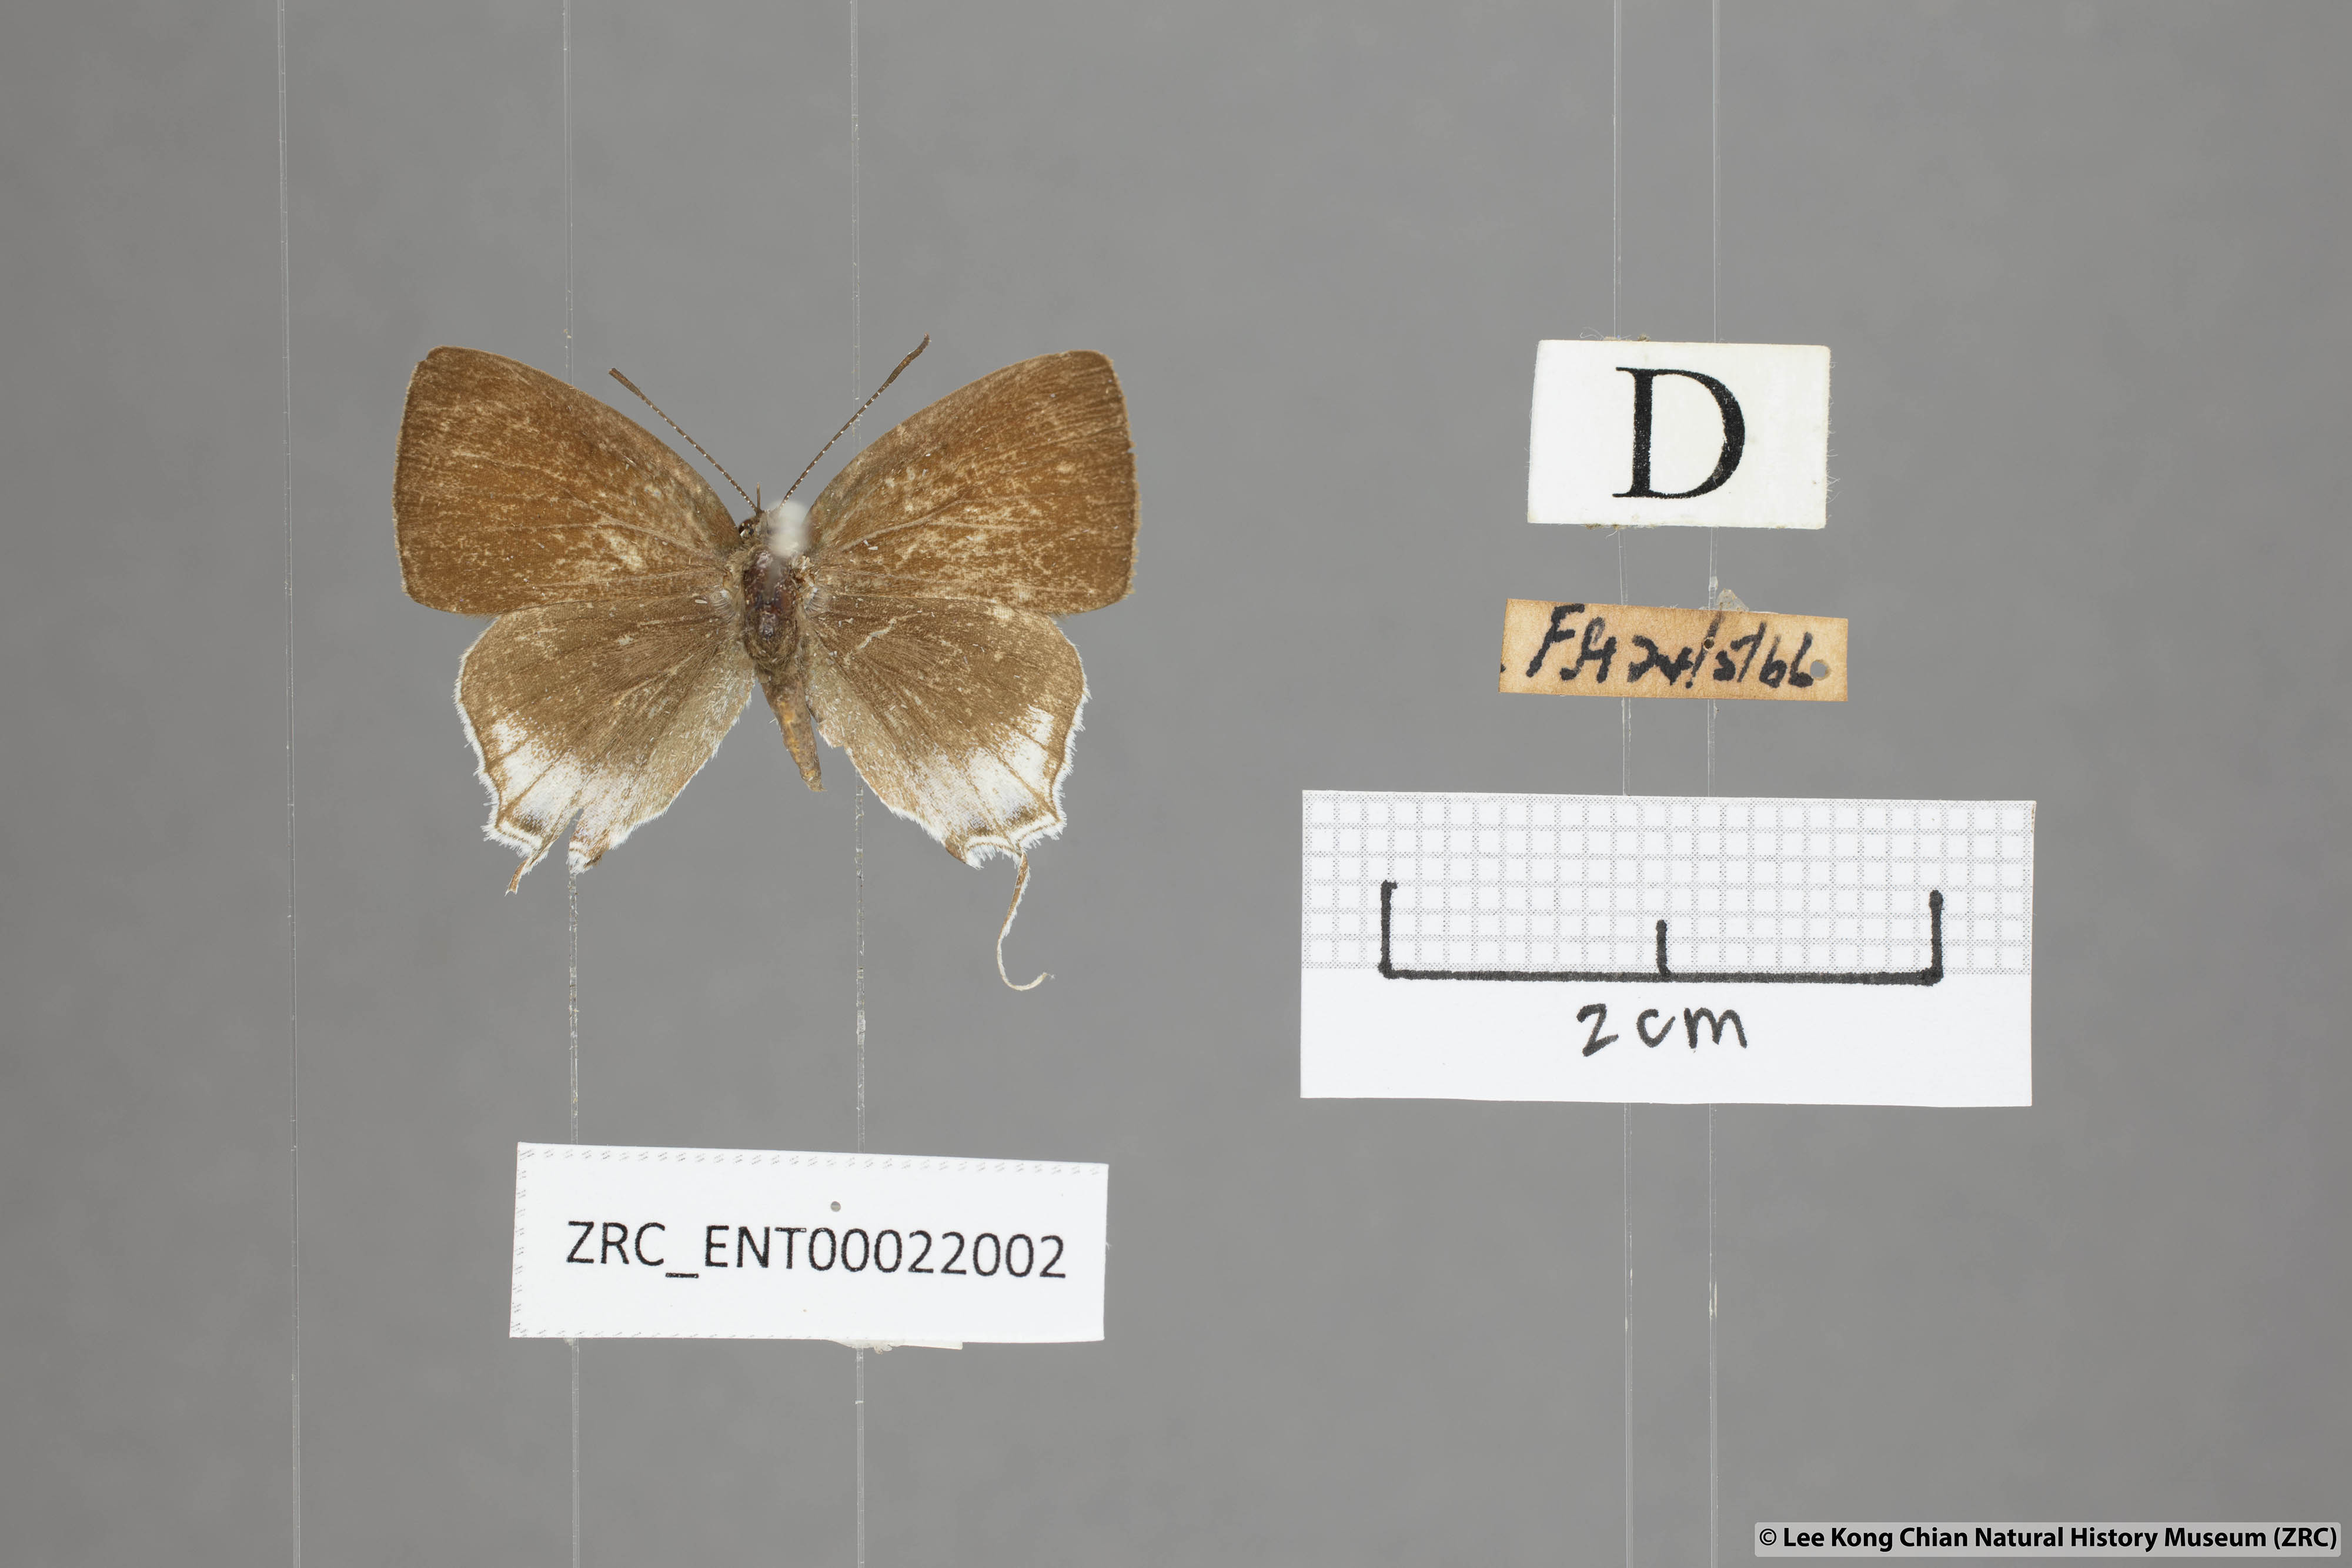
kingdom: Animalia
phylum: Arthropoda
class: Insecta
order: Lepidoptera
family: Lycaenidae
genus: Sinthusa
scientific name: Sinthusa malika
